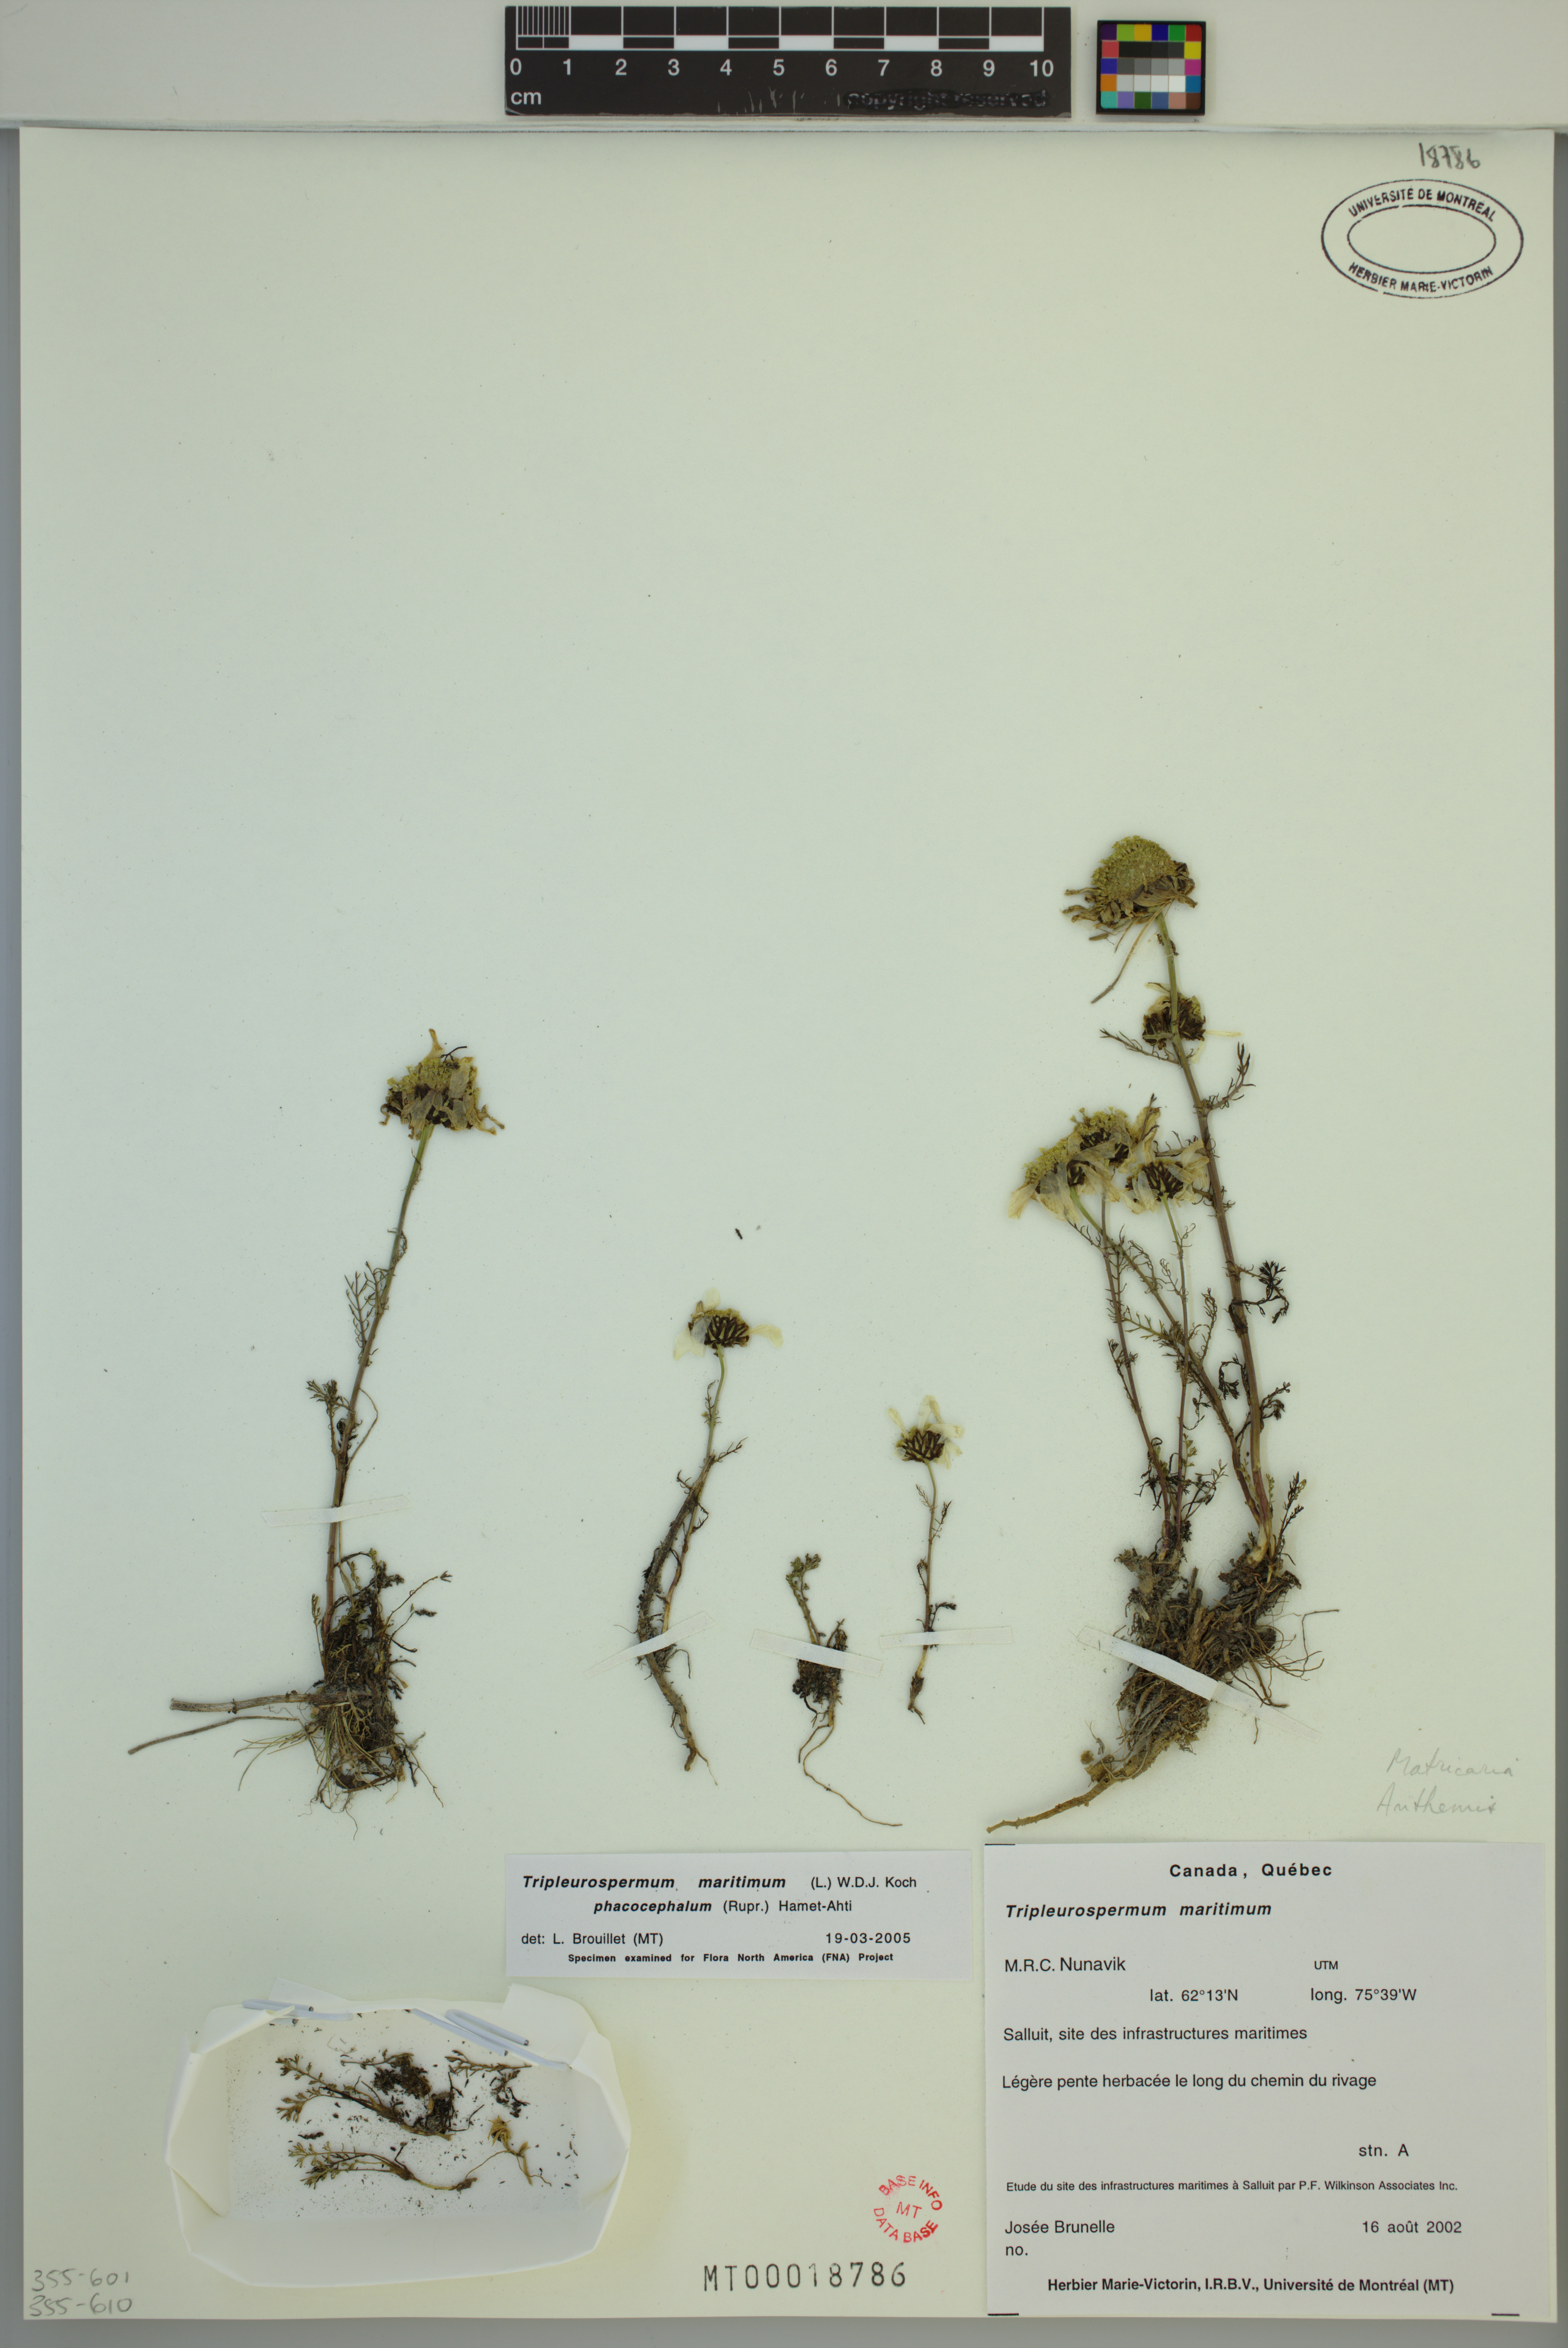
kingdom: Plantae
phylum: Tracheophyta
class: Magnoliopsida
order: Asterales
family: Asteraceae
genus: Tripleurospermum
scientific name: Tripleurospermum hookeri
